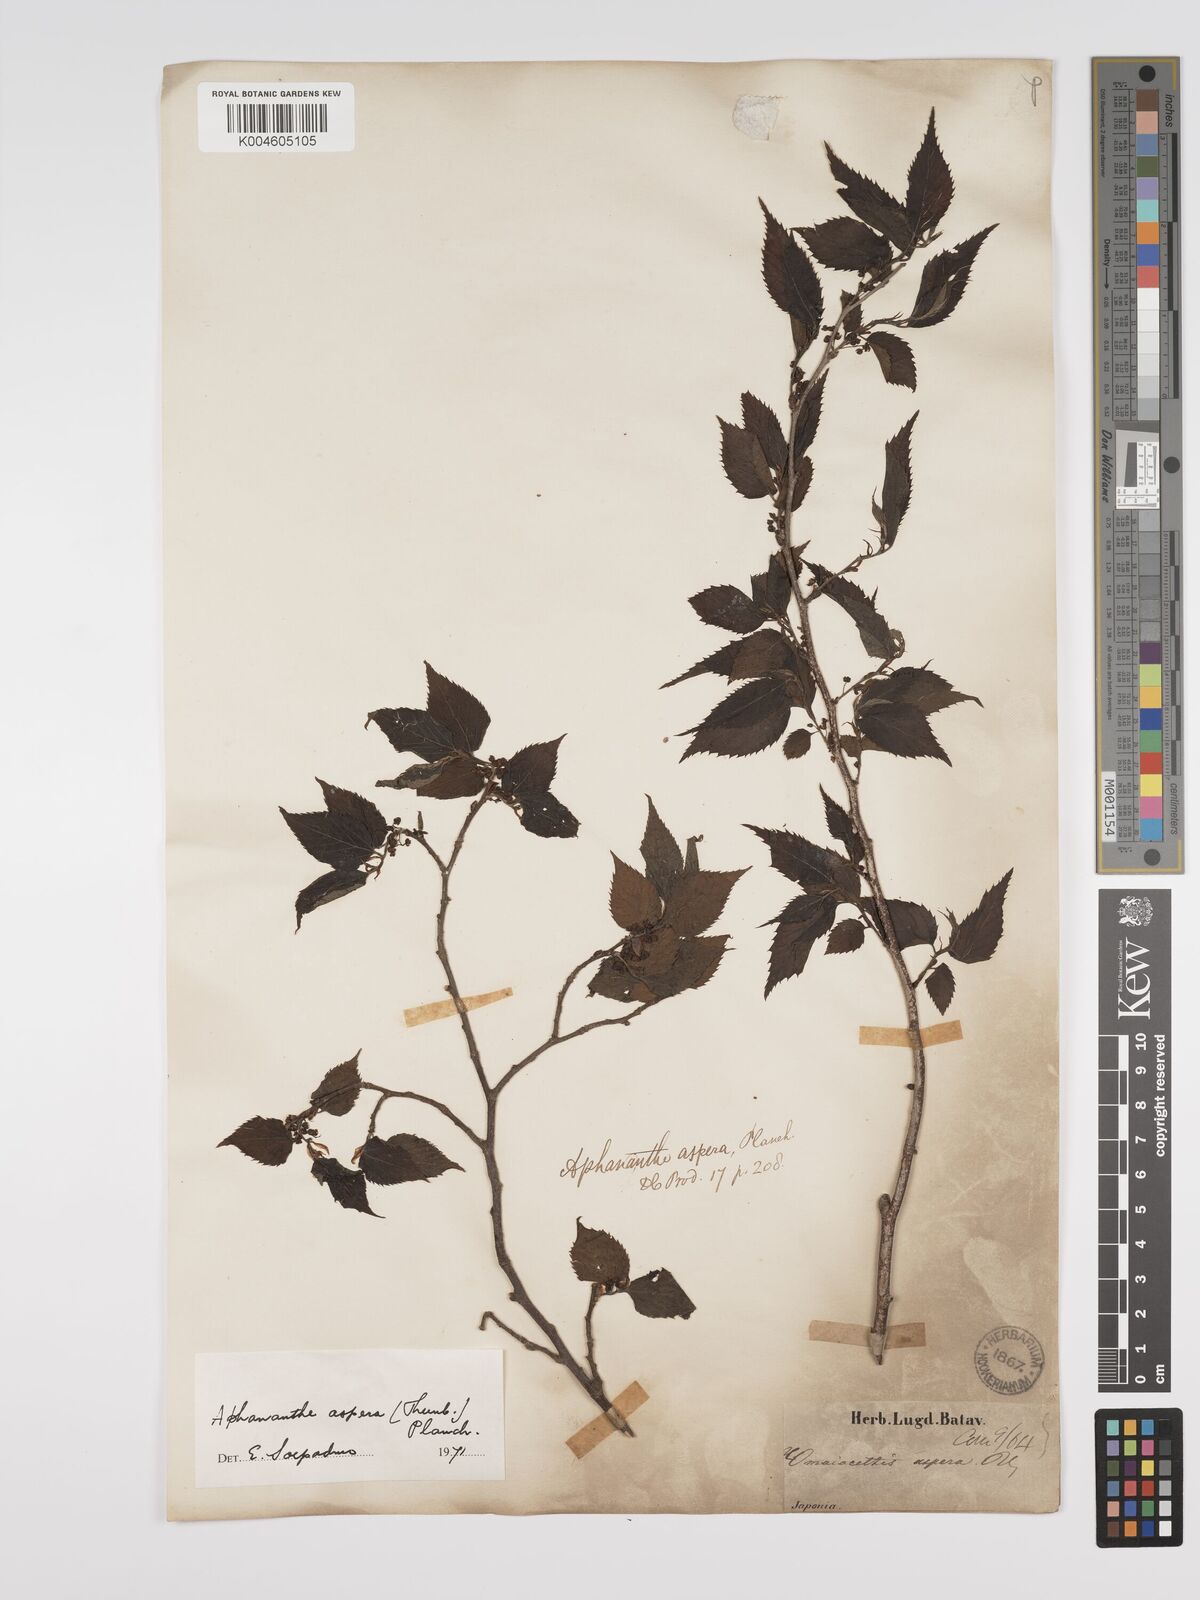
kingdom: Plantae
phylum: Tracheophyta
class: Magnoliopsida
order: Rosales
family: Cannabaceae
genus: Aphananthe
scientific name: Aphananthe aspera
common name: Mukutree
